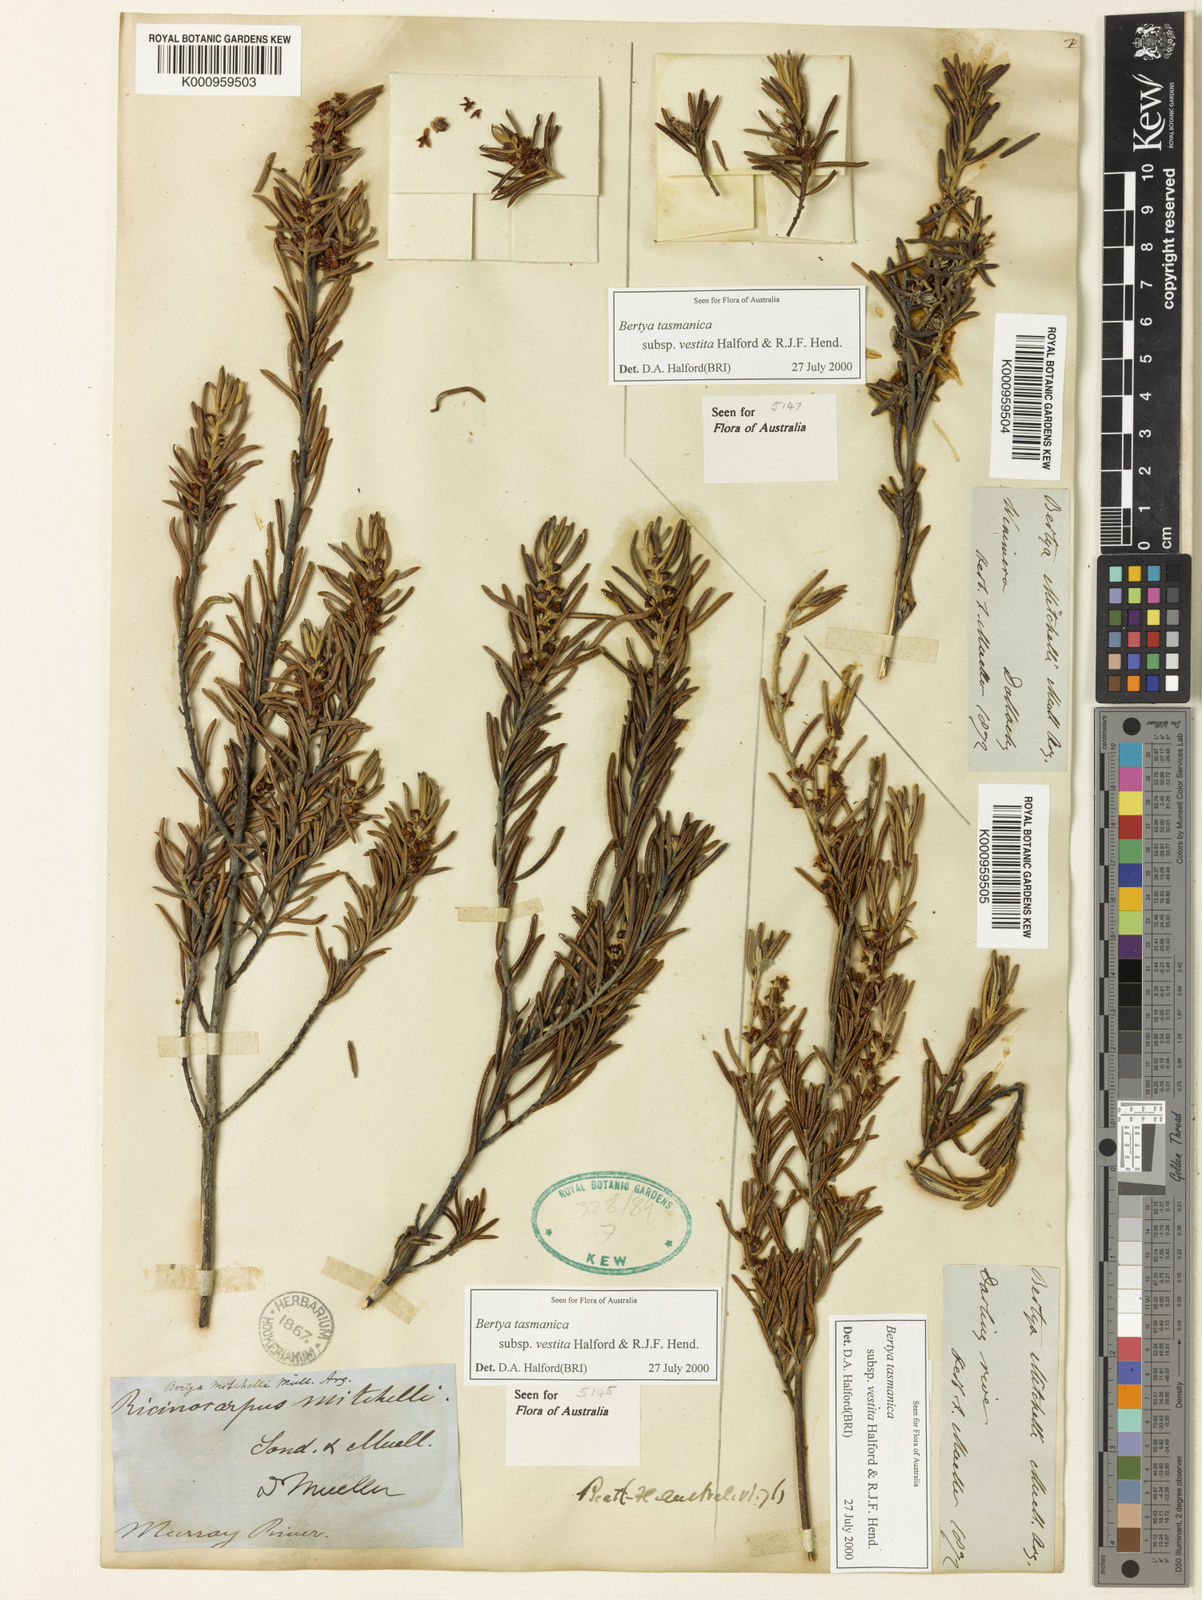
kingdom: Plantae
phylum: Tracheophyta
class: Magnoliopsida
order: Malpighiales
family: Euphorbiaceae
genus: Bertya
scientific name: Bertya
